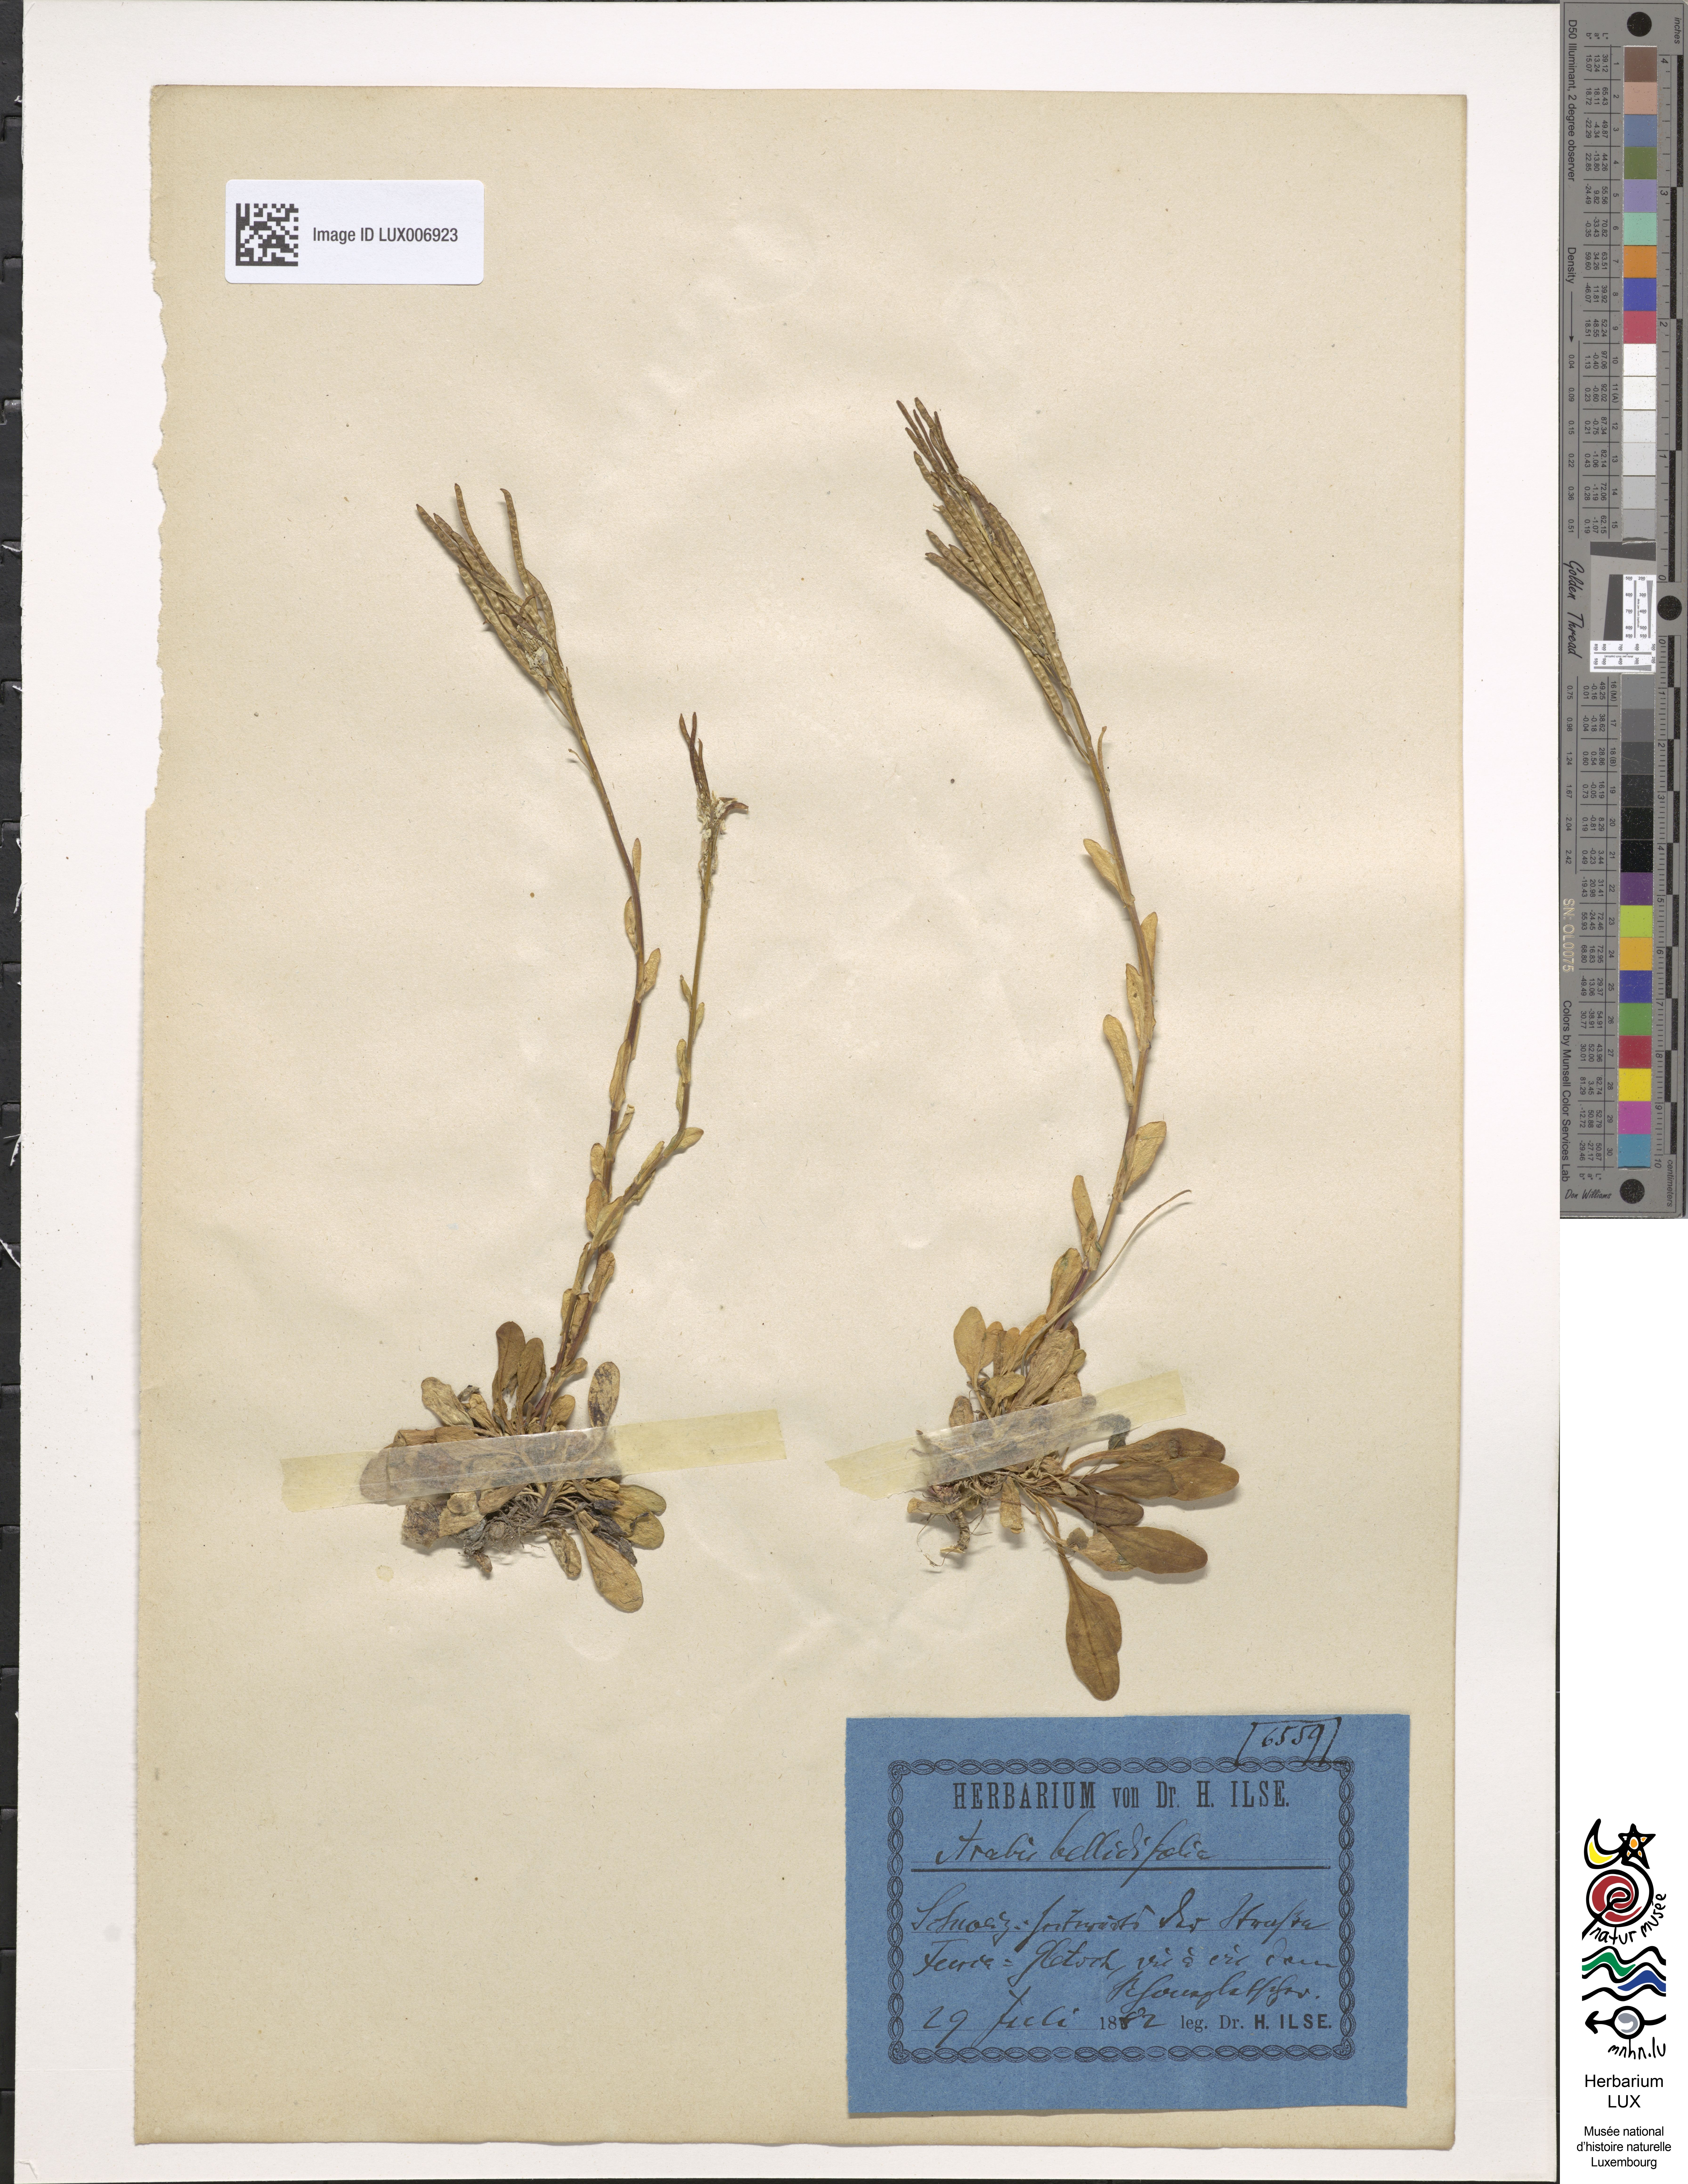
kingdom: Plantae
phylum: Tracheophyta
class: Magnoliopsida
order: Brassicales
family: Brassicaceae
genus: Arabis
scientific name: Arabis soyeri
